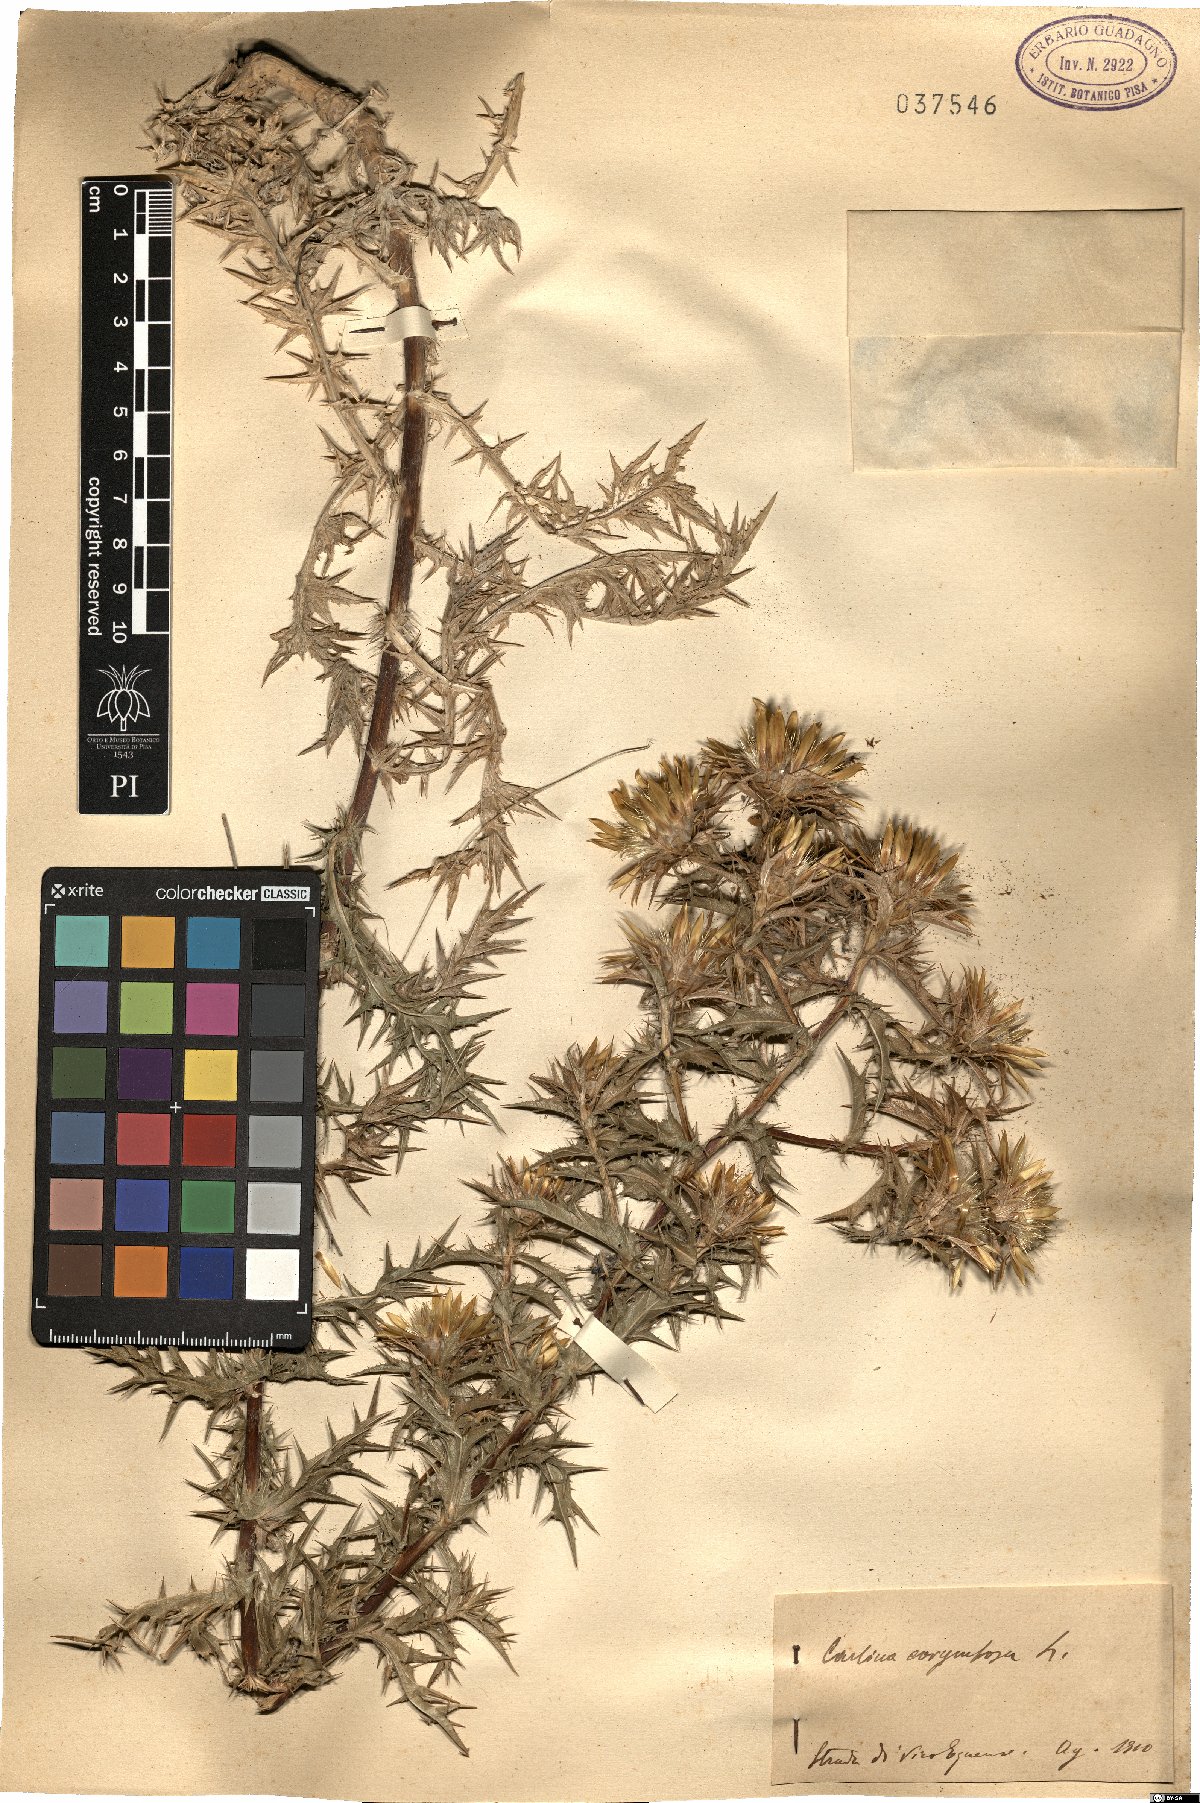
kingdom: Plantae
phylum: Tracheophyta
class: Magnoliopsida
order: Asterales
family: Asteraceae
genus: Carlina
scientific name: Carlina corymbosa
